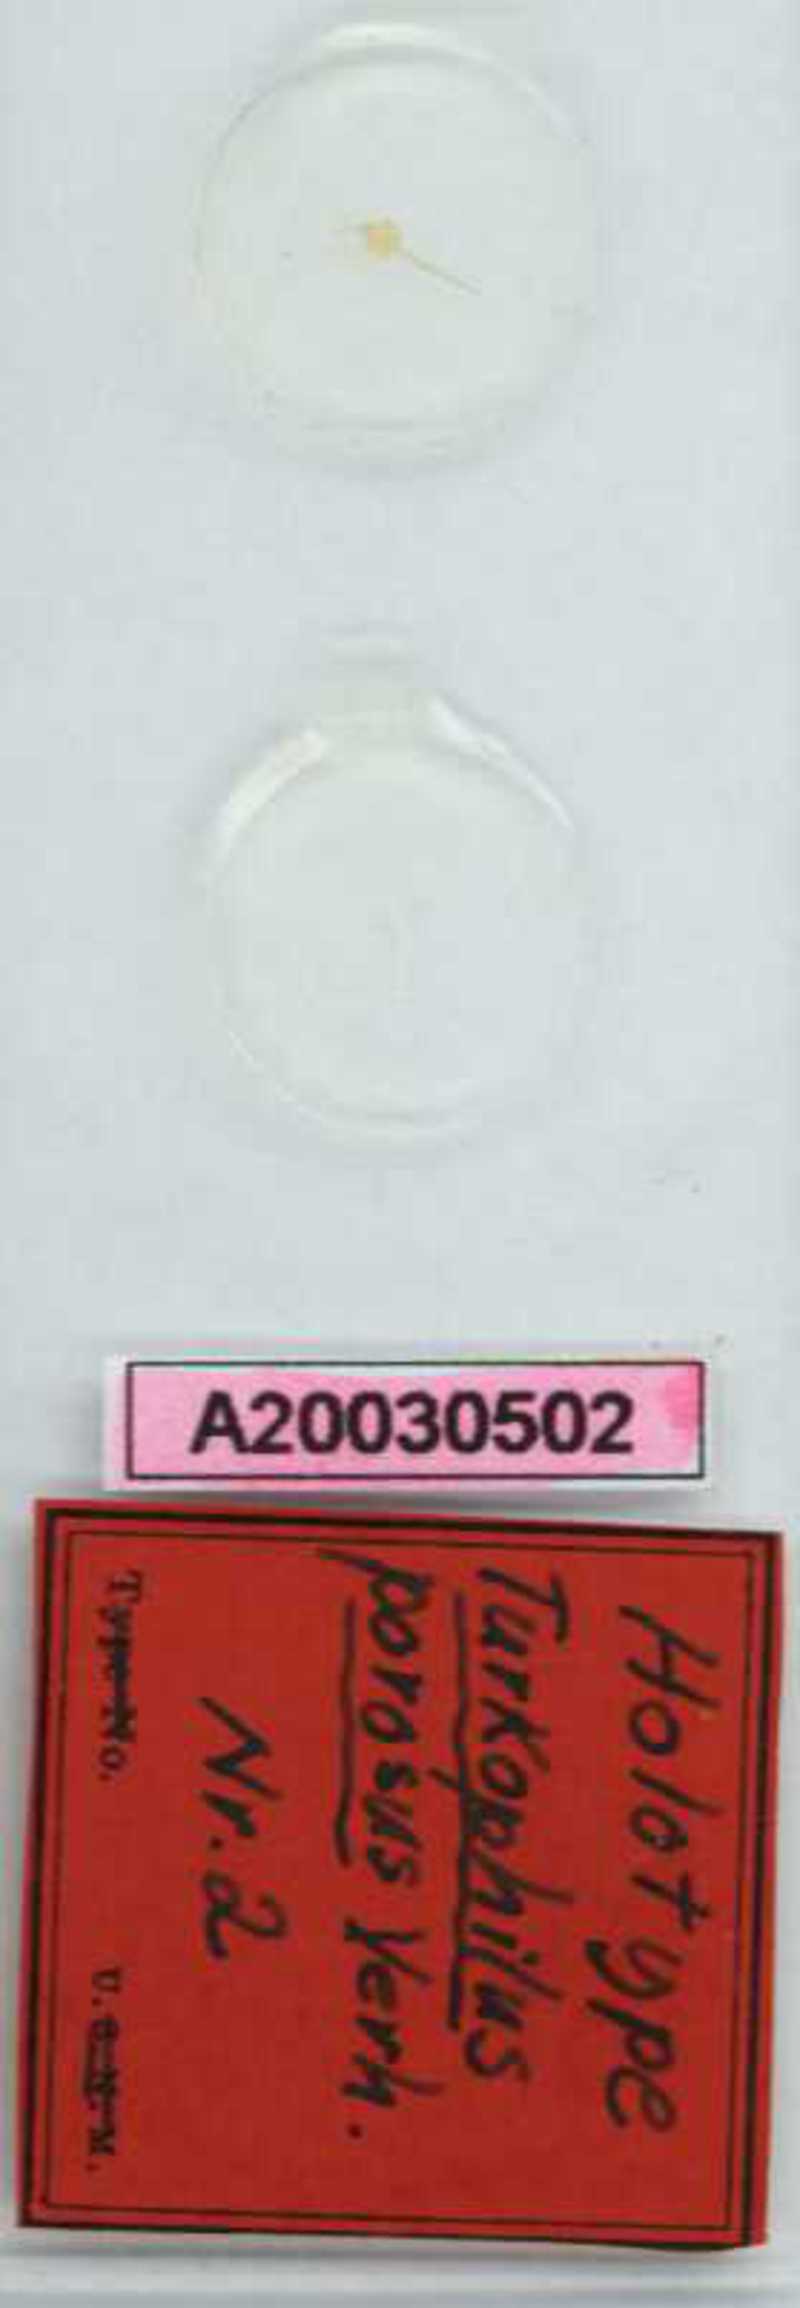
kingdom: Animalia
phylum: Arthropoda
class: Chilopoda
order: Geophilomorpha
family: Dignathodontidae
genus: Henia
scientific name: Henia porosa
